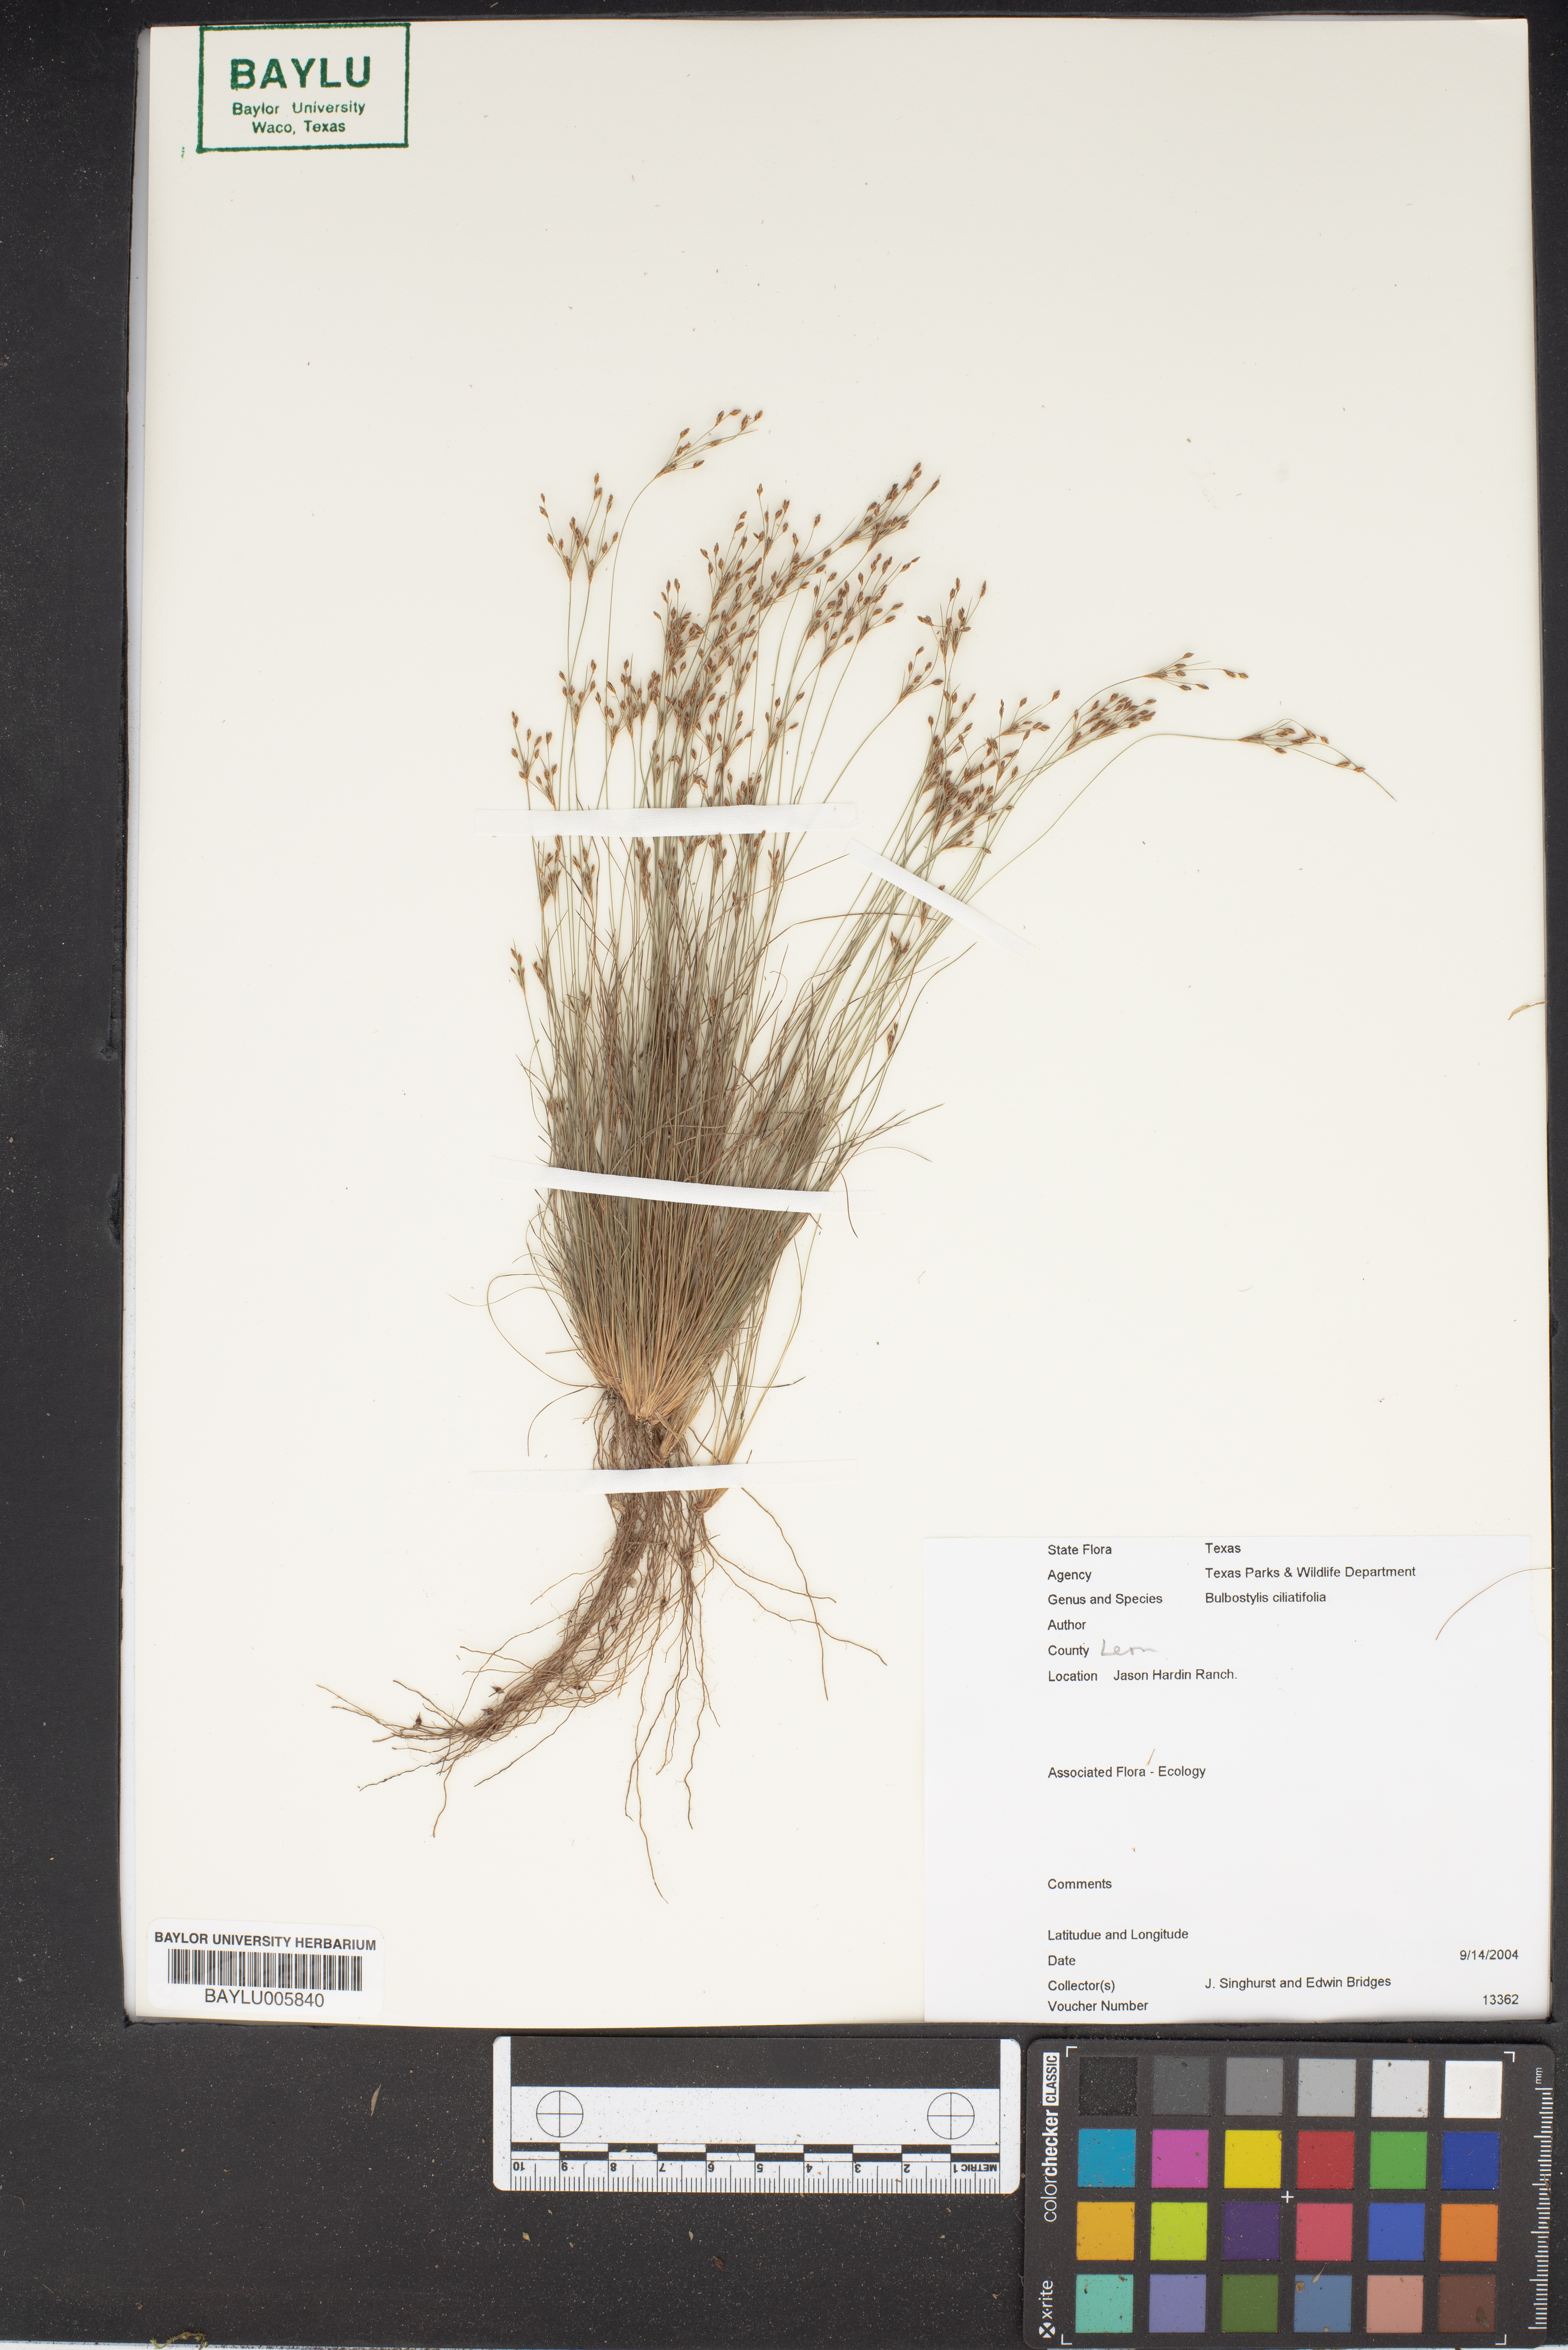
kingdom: Plantae
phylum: Tracheophyta
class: Liliopsida
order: Poales
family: Cyperaceae
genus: Bulbostylis
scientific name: Bulbostylis ciliatifolia
